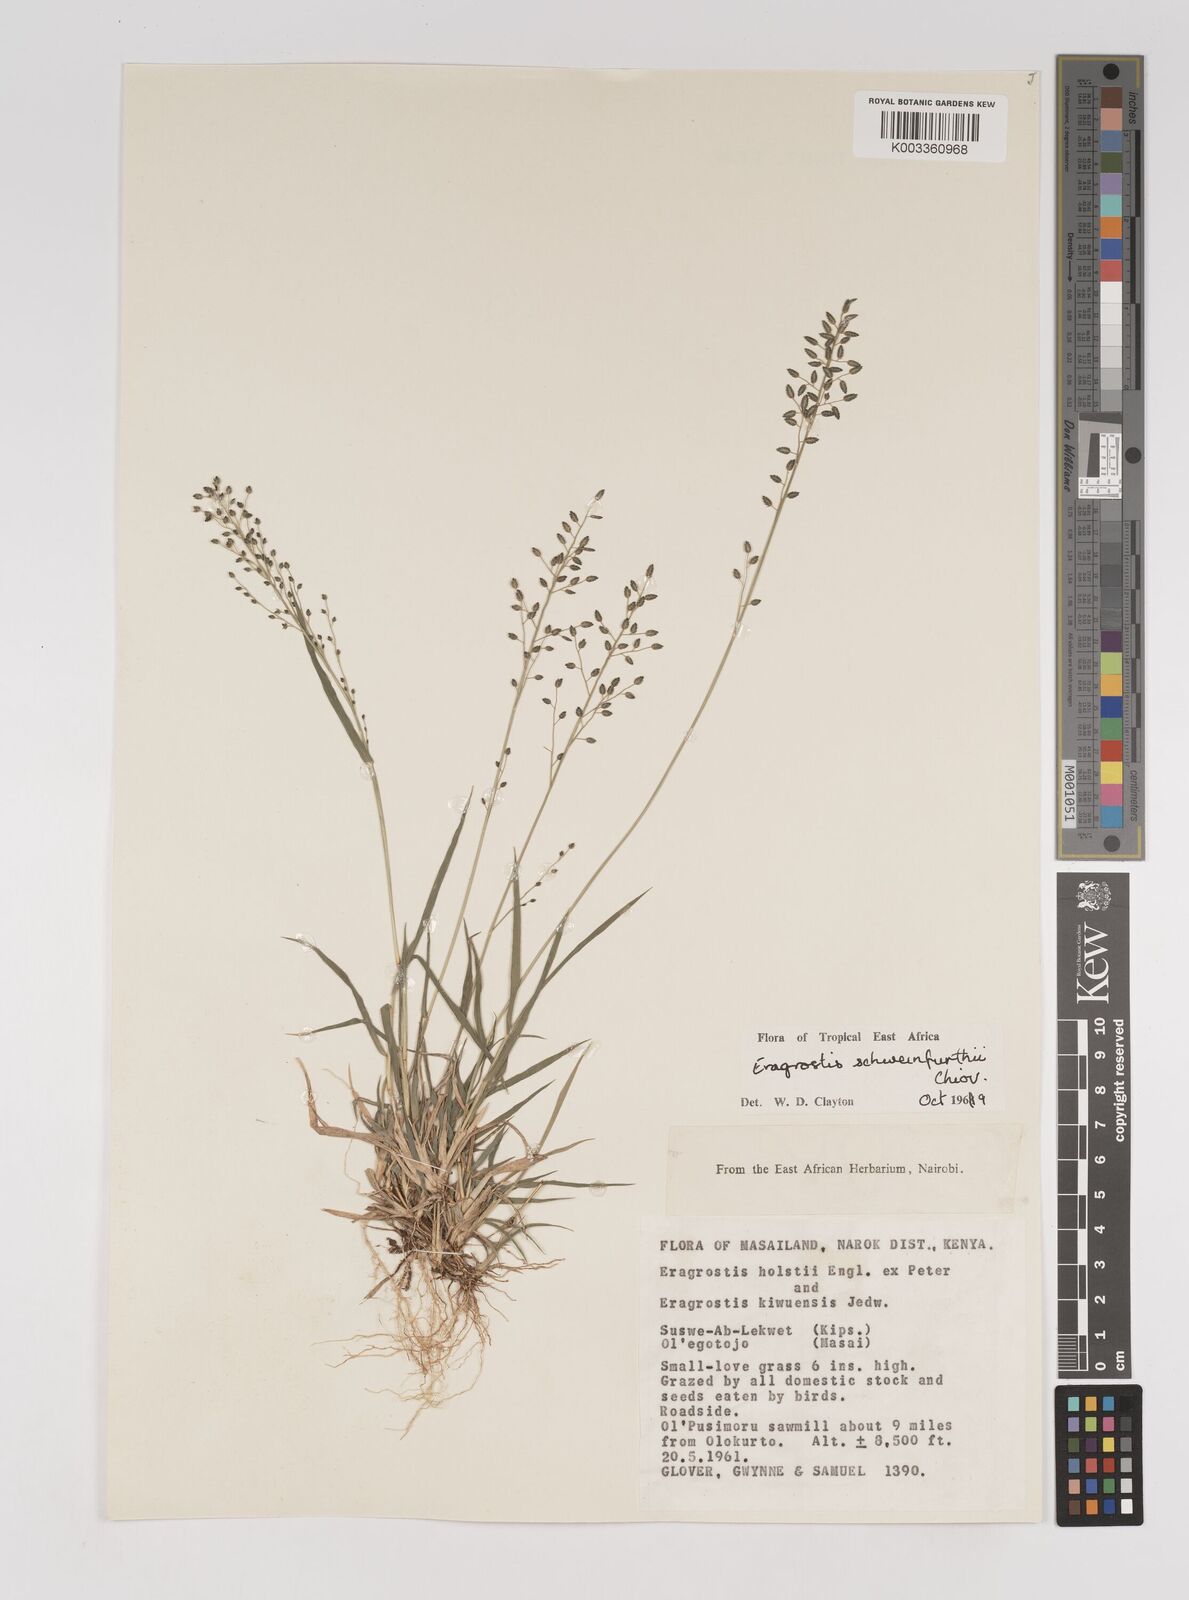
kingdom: Plantae
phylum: Tracheophyta
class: Liliopsida
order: Poales
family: Poaceae
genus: Eragrostis
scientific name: Eragrostis schweinfurthii
